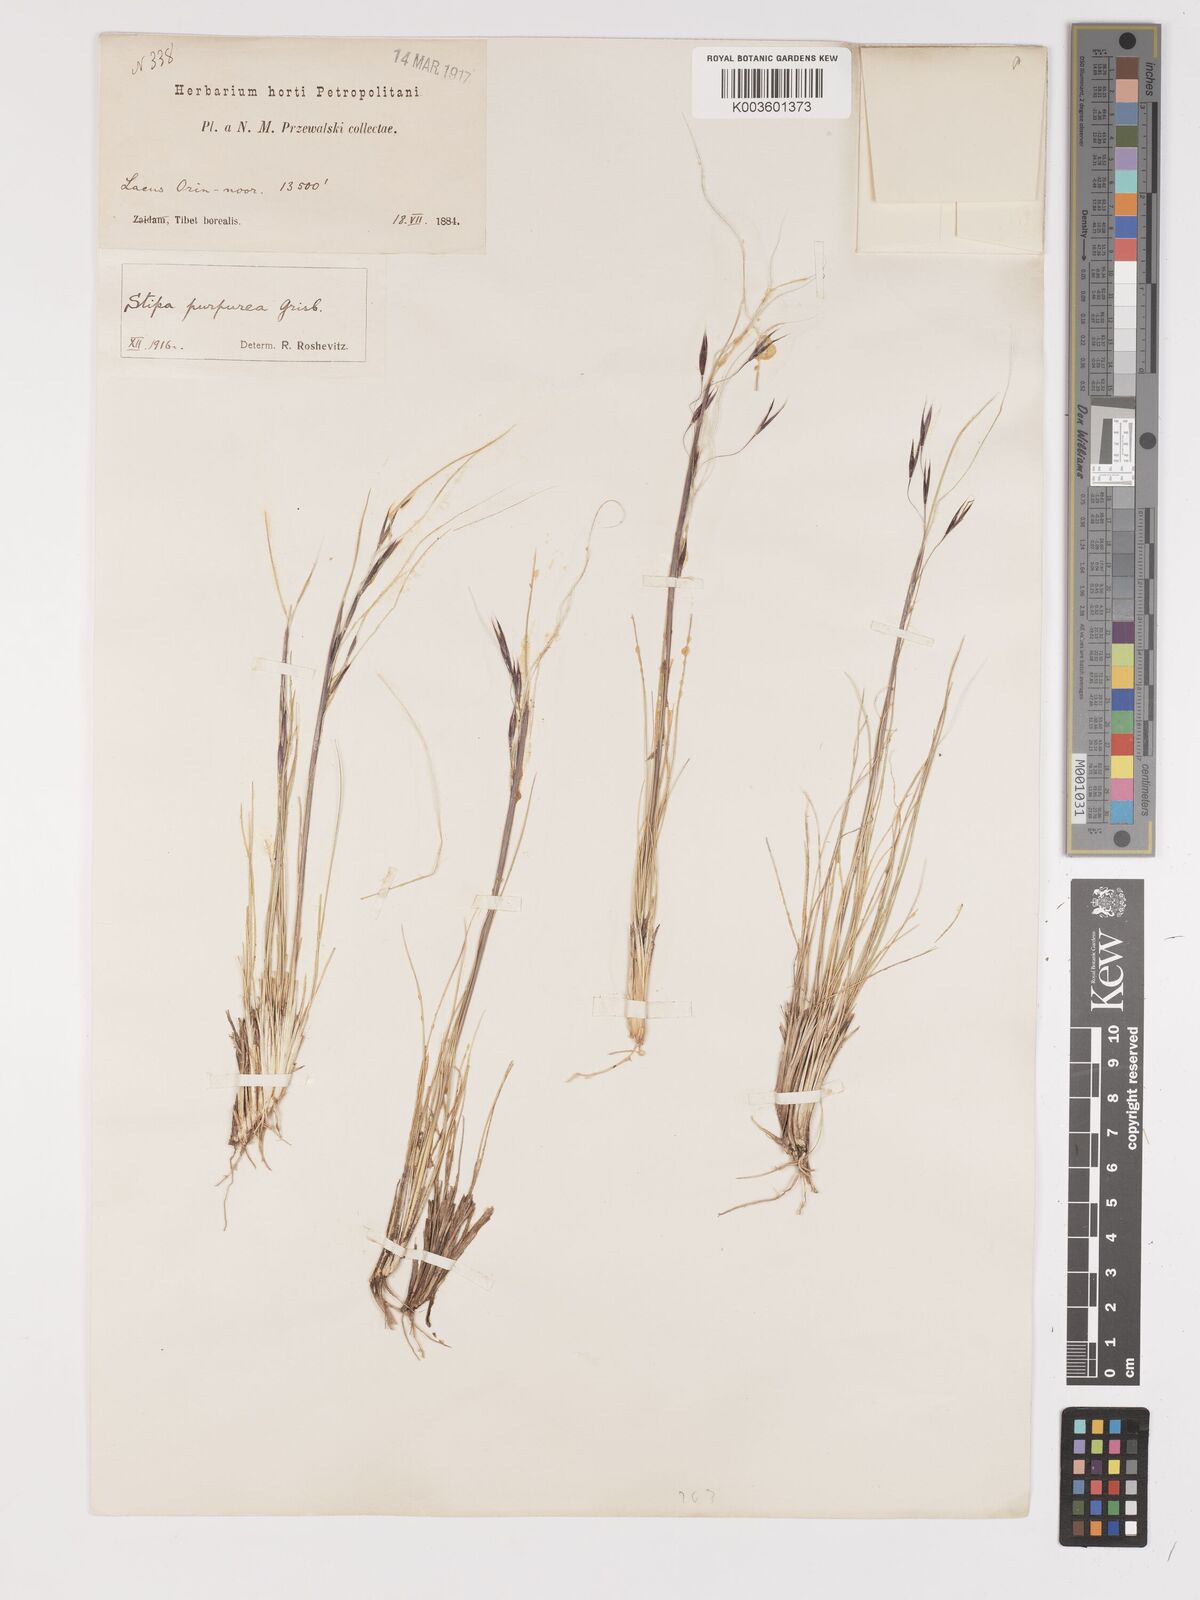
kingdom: Plantae
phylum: Tracheophyta
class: Liliopsida
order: Poales
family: Poaceae
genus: Stipa
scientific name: Stipa purpurea
